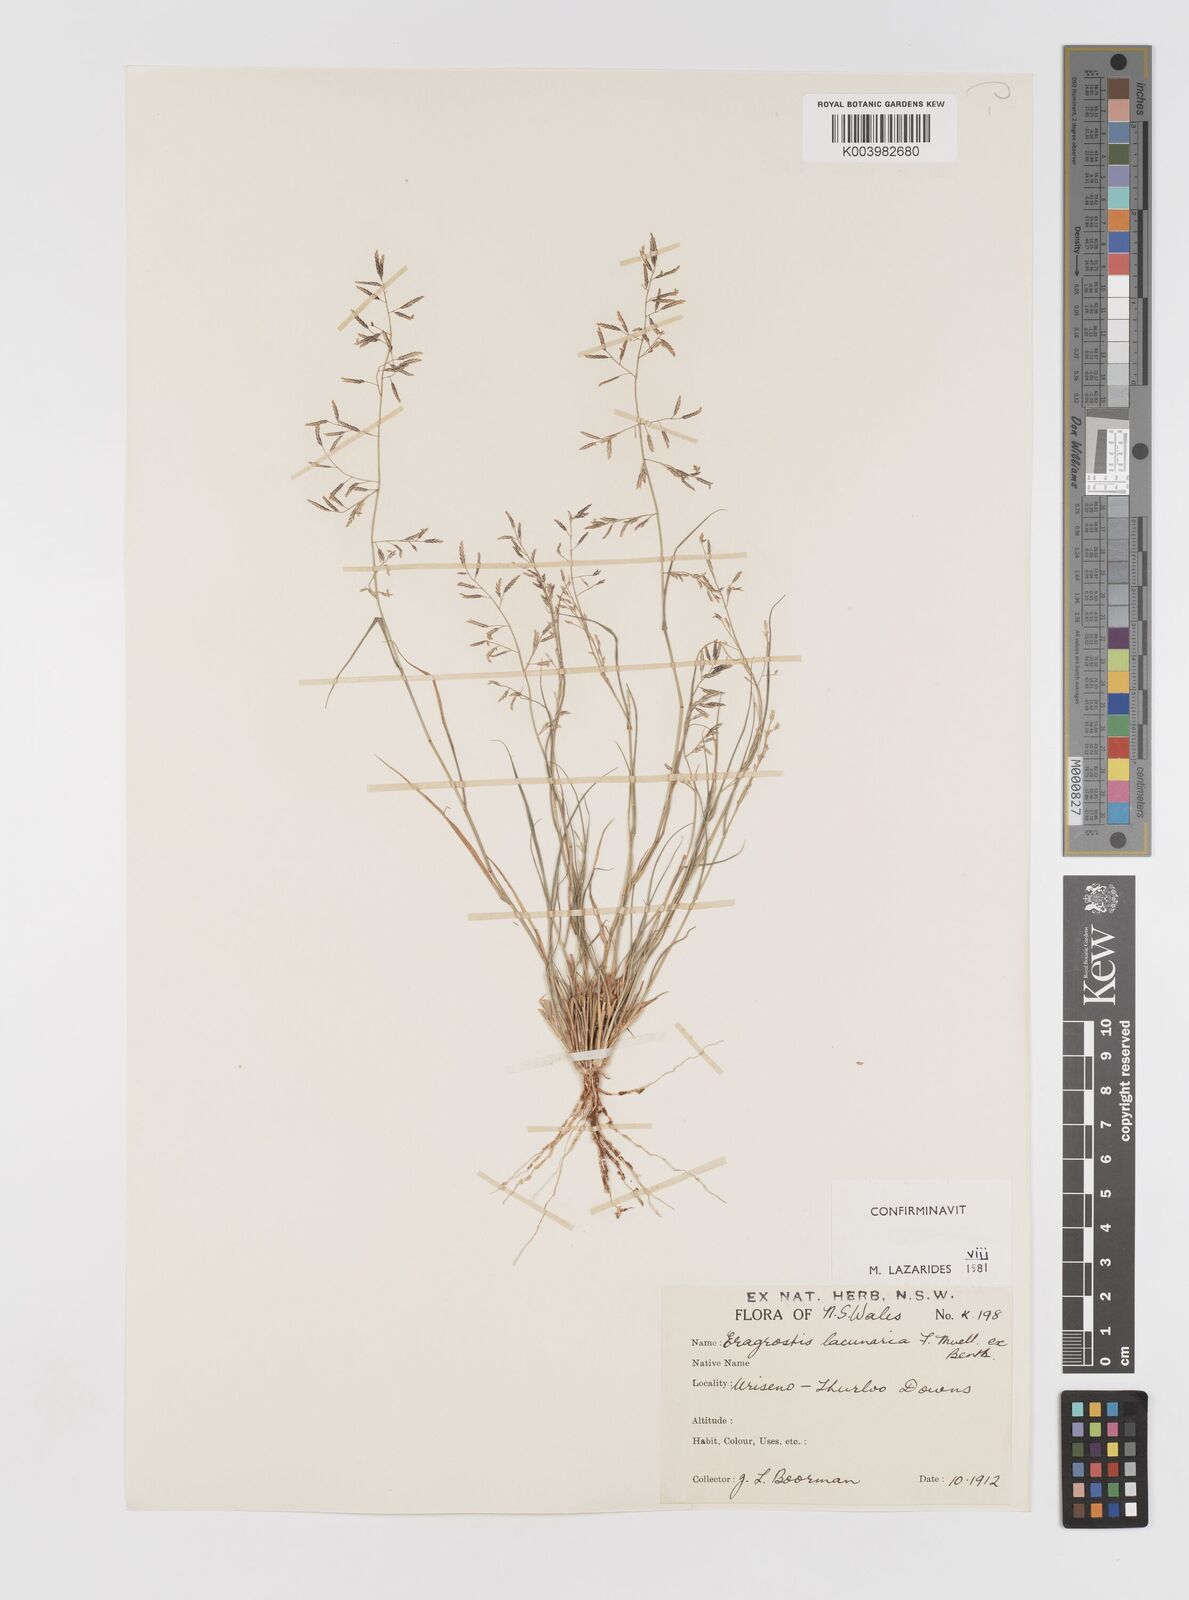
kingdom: Plantae
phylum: Tracheophyta
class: Liliopsida
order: Poales
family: Poaceae
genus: Eragrostis
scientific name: Eragrostis lacunaria
